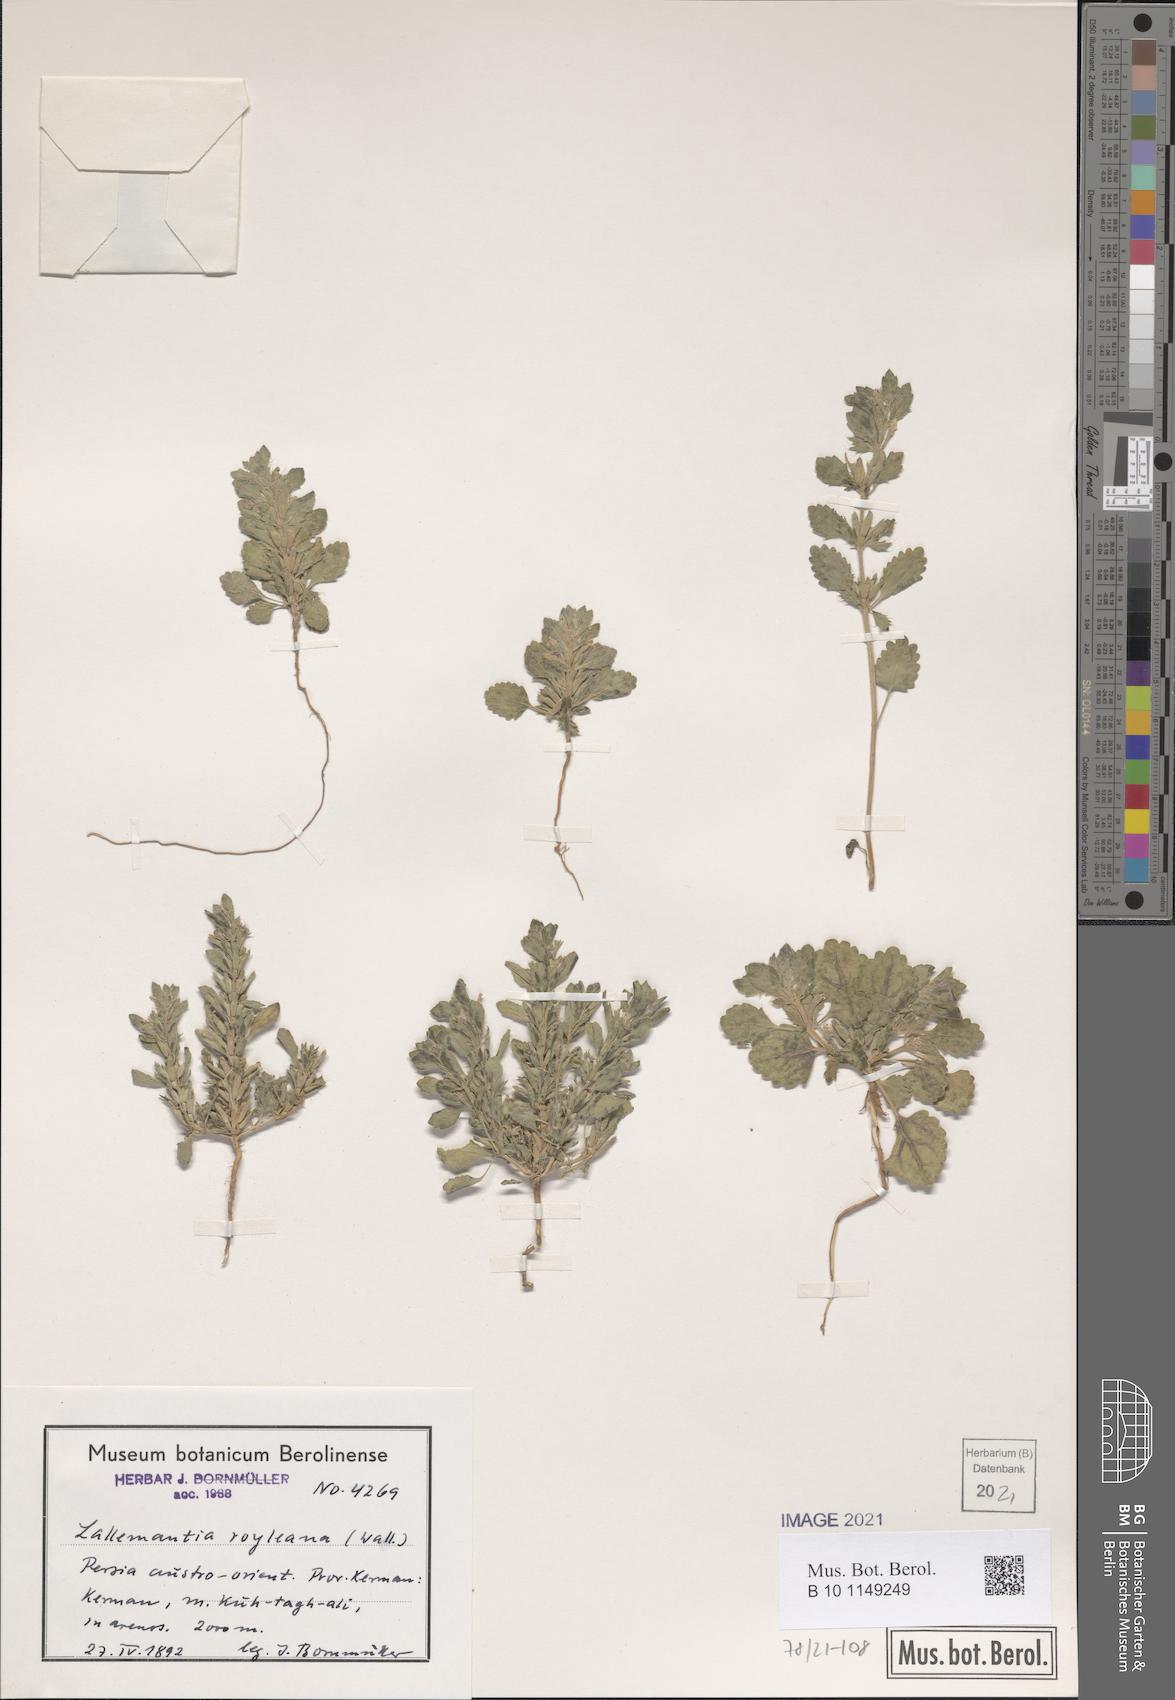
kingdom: Plantae
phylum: Tracheophyta
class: Magnoliopsida
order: Lamiales
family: Lamiaceae
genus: Lallemantia
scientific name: Lallemantia royleana
